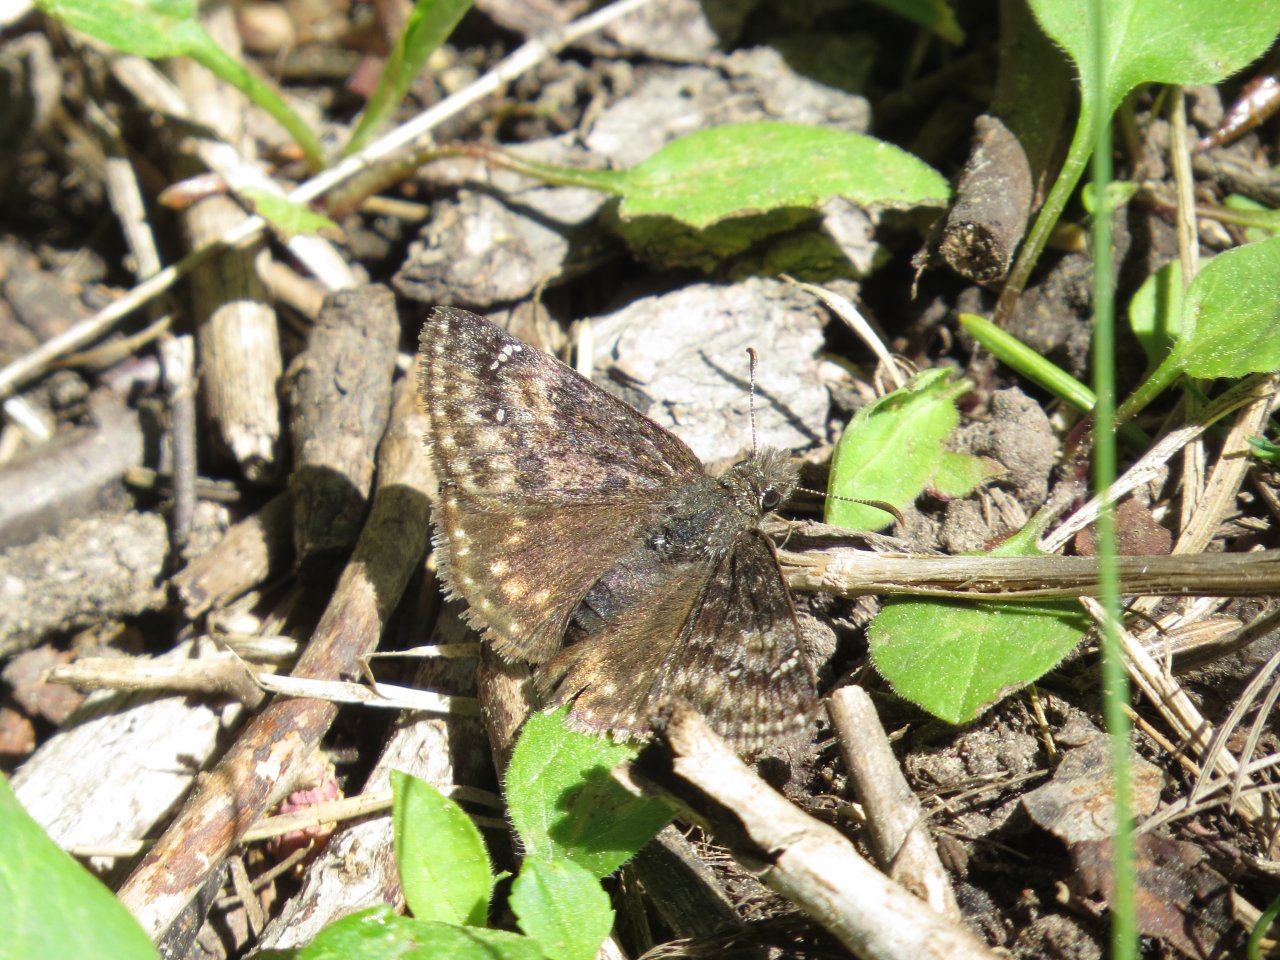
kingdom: Animalia
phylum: Arthropoda
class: Insecta
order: Lepidoptera
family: Hesperiidae
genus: Gesta
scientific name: Gesta
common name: Persius Duskywing
